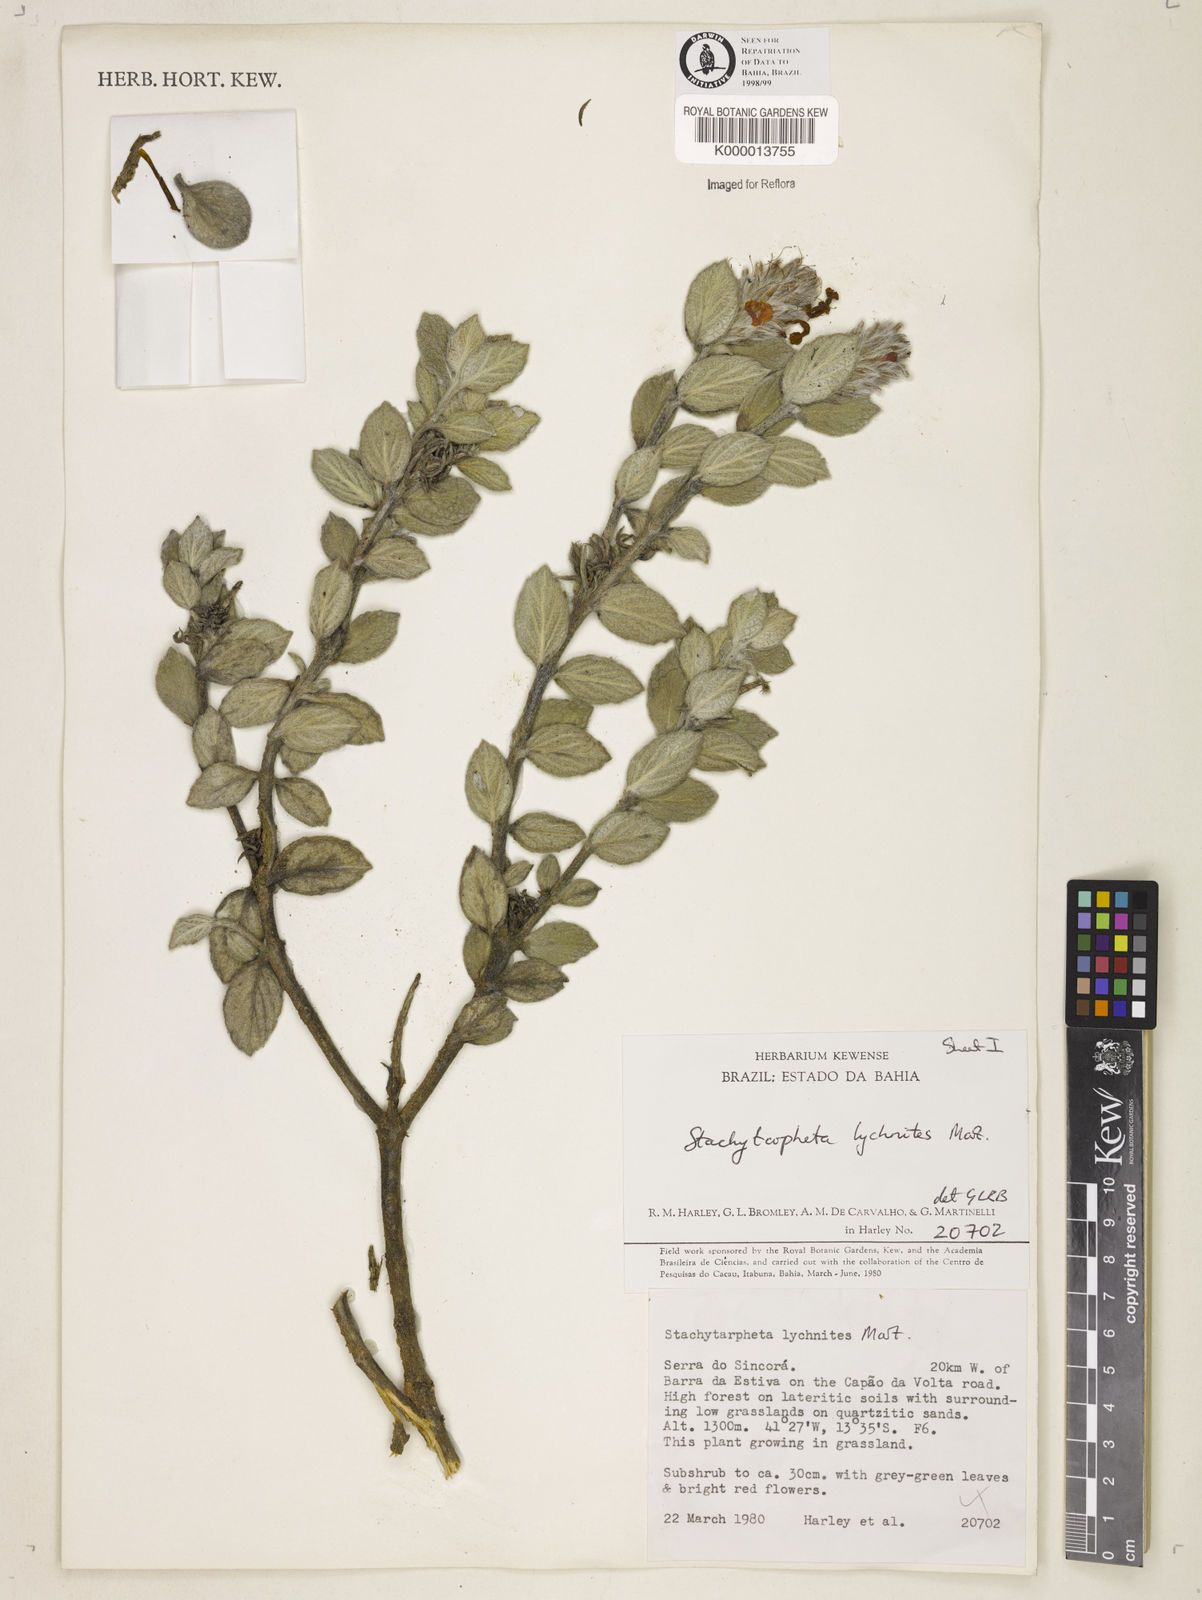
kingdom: Plantae
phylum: Tracheophyta
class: Magnoliopsida
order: Lamiales
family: Verbenaceae
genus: Stachytarpheta
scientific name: Stachytarpheta
